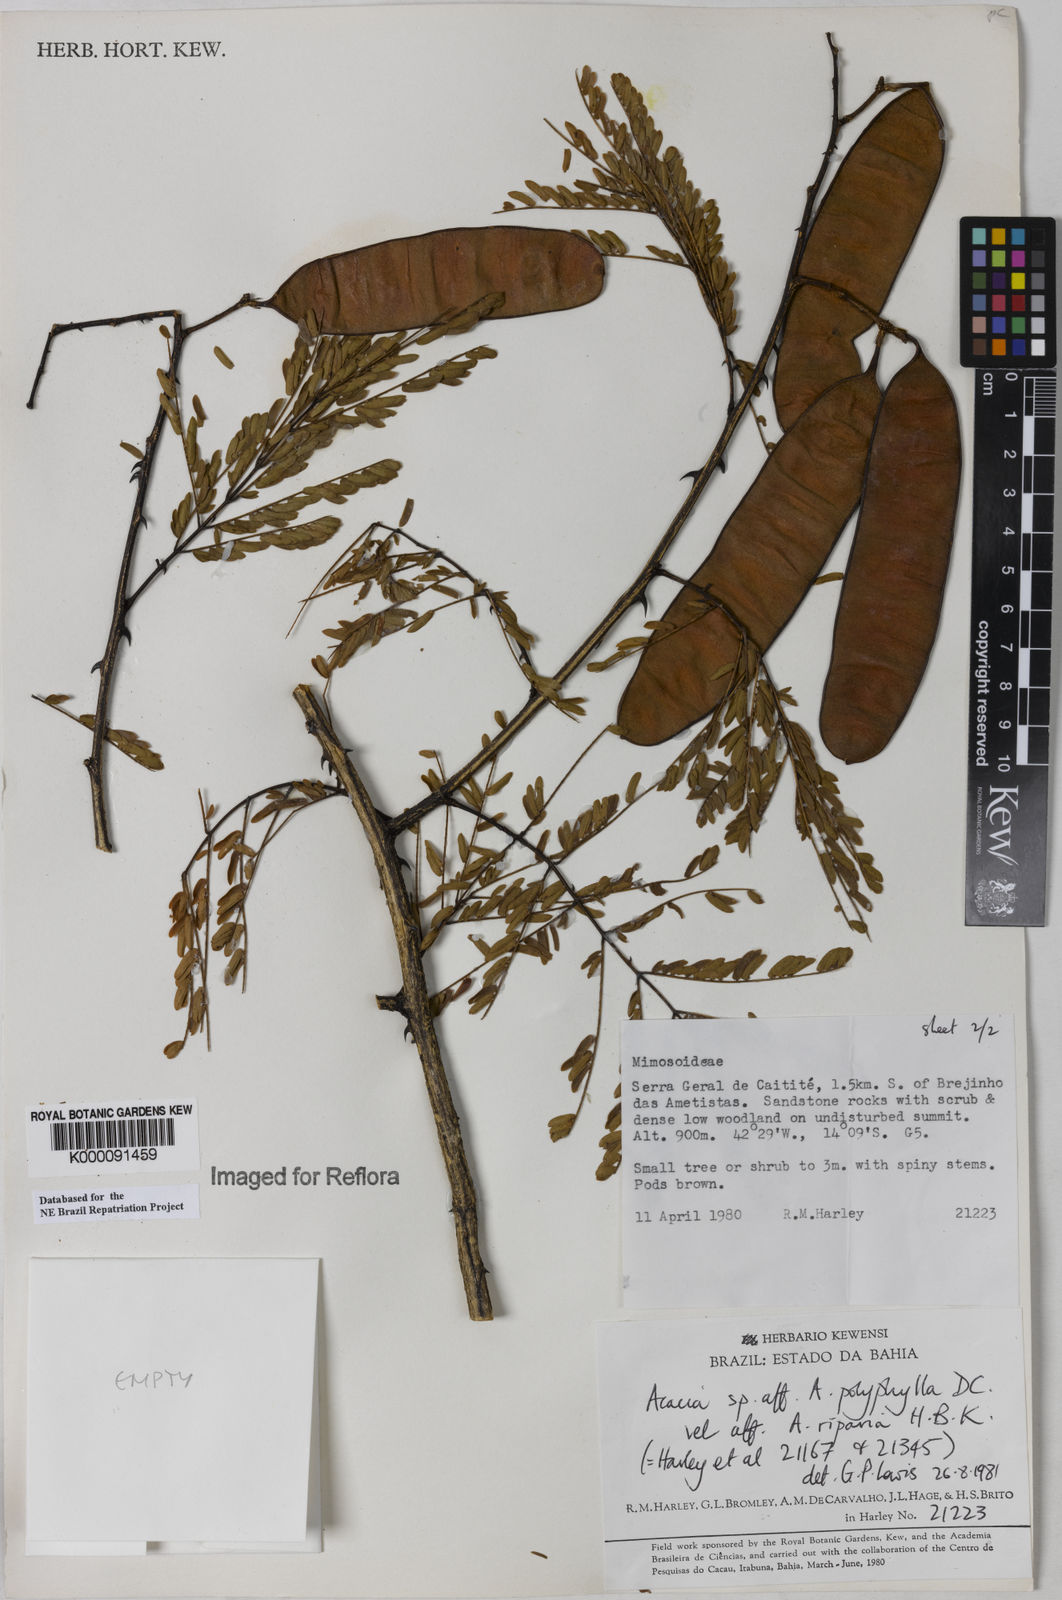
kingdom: Plantae
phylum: Tracheophyta
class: Magnoliopsida
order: Fabales
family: Fabaceae
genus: Senegalia
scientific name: Senegalia polyphylla
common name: White-tamarind
